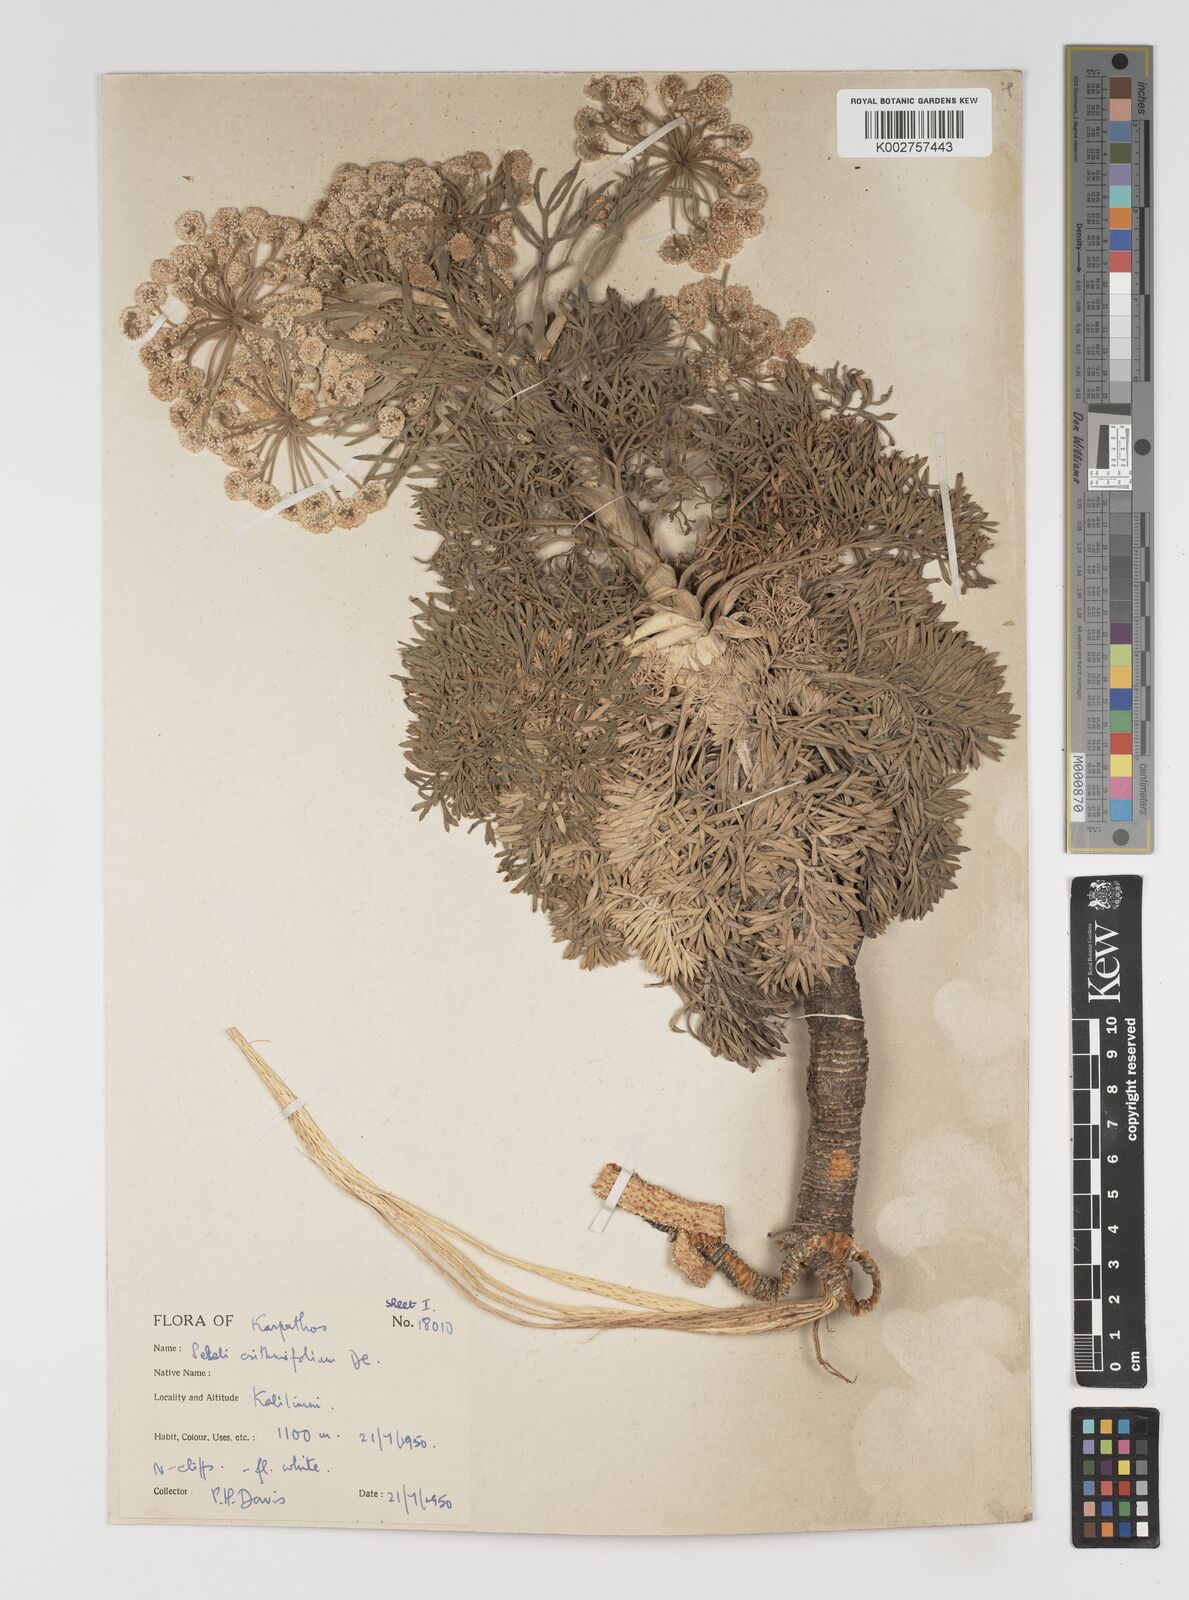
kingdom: Plantae
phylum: Tracheophyta
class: Magnoliopsida
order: Apiales
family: Apiaceae
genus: Seseli
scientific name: Seseli crithmifolium
